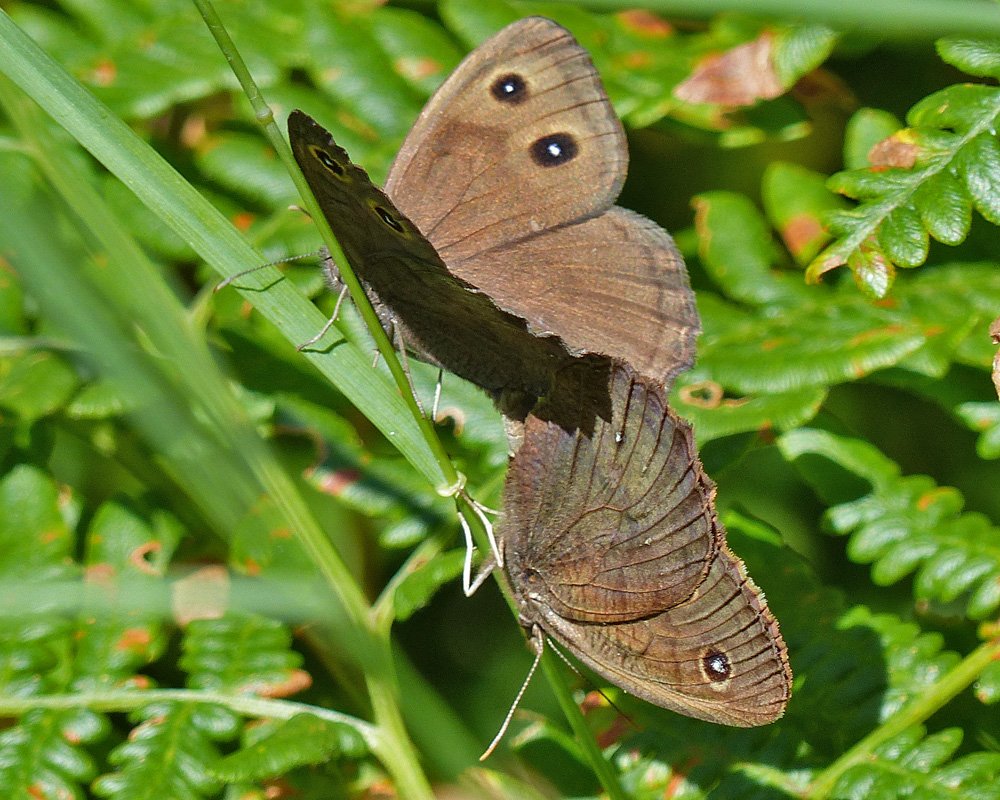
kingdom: Animalia
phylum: Arthropoda
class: Insecta
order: Lepidoptera
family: Nymphalidae
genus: Cercyonis
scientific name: Cercyonis pegala
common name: Common Wood-Nymph
